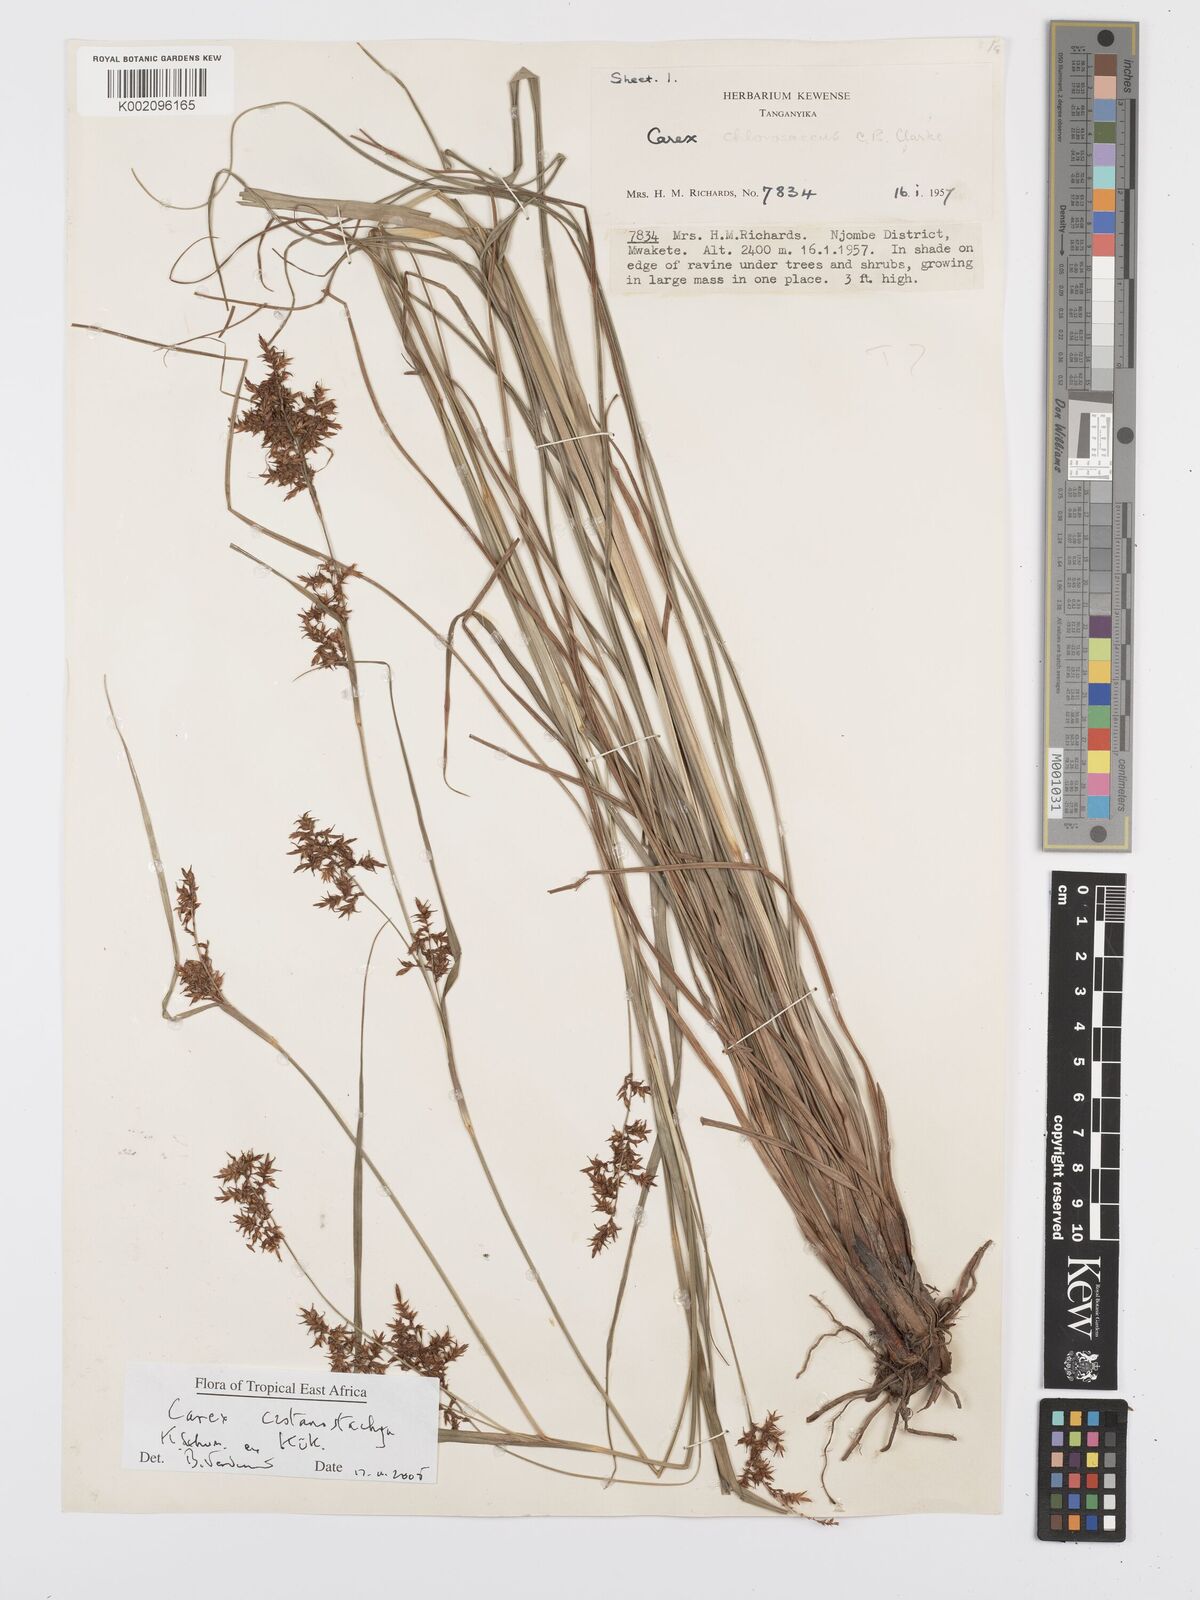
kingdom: Plantae
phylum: Tracheophyta
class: Liliopsida
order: Poales
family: Cyperaceae
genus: Carex
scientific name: Carex castanostachya
